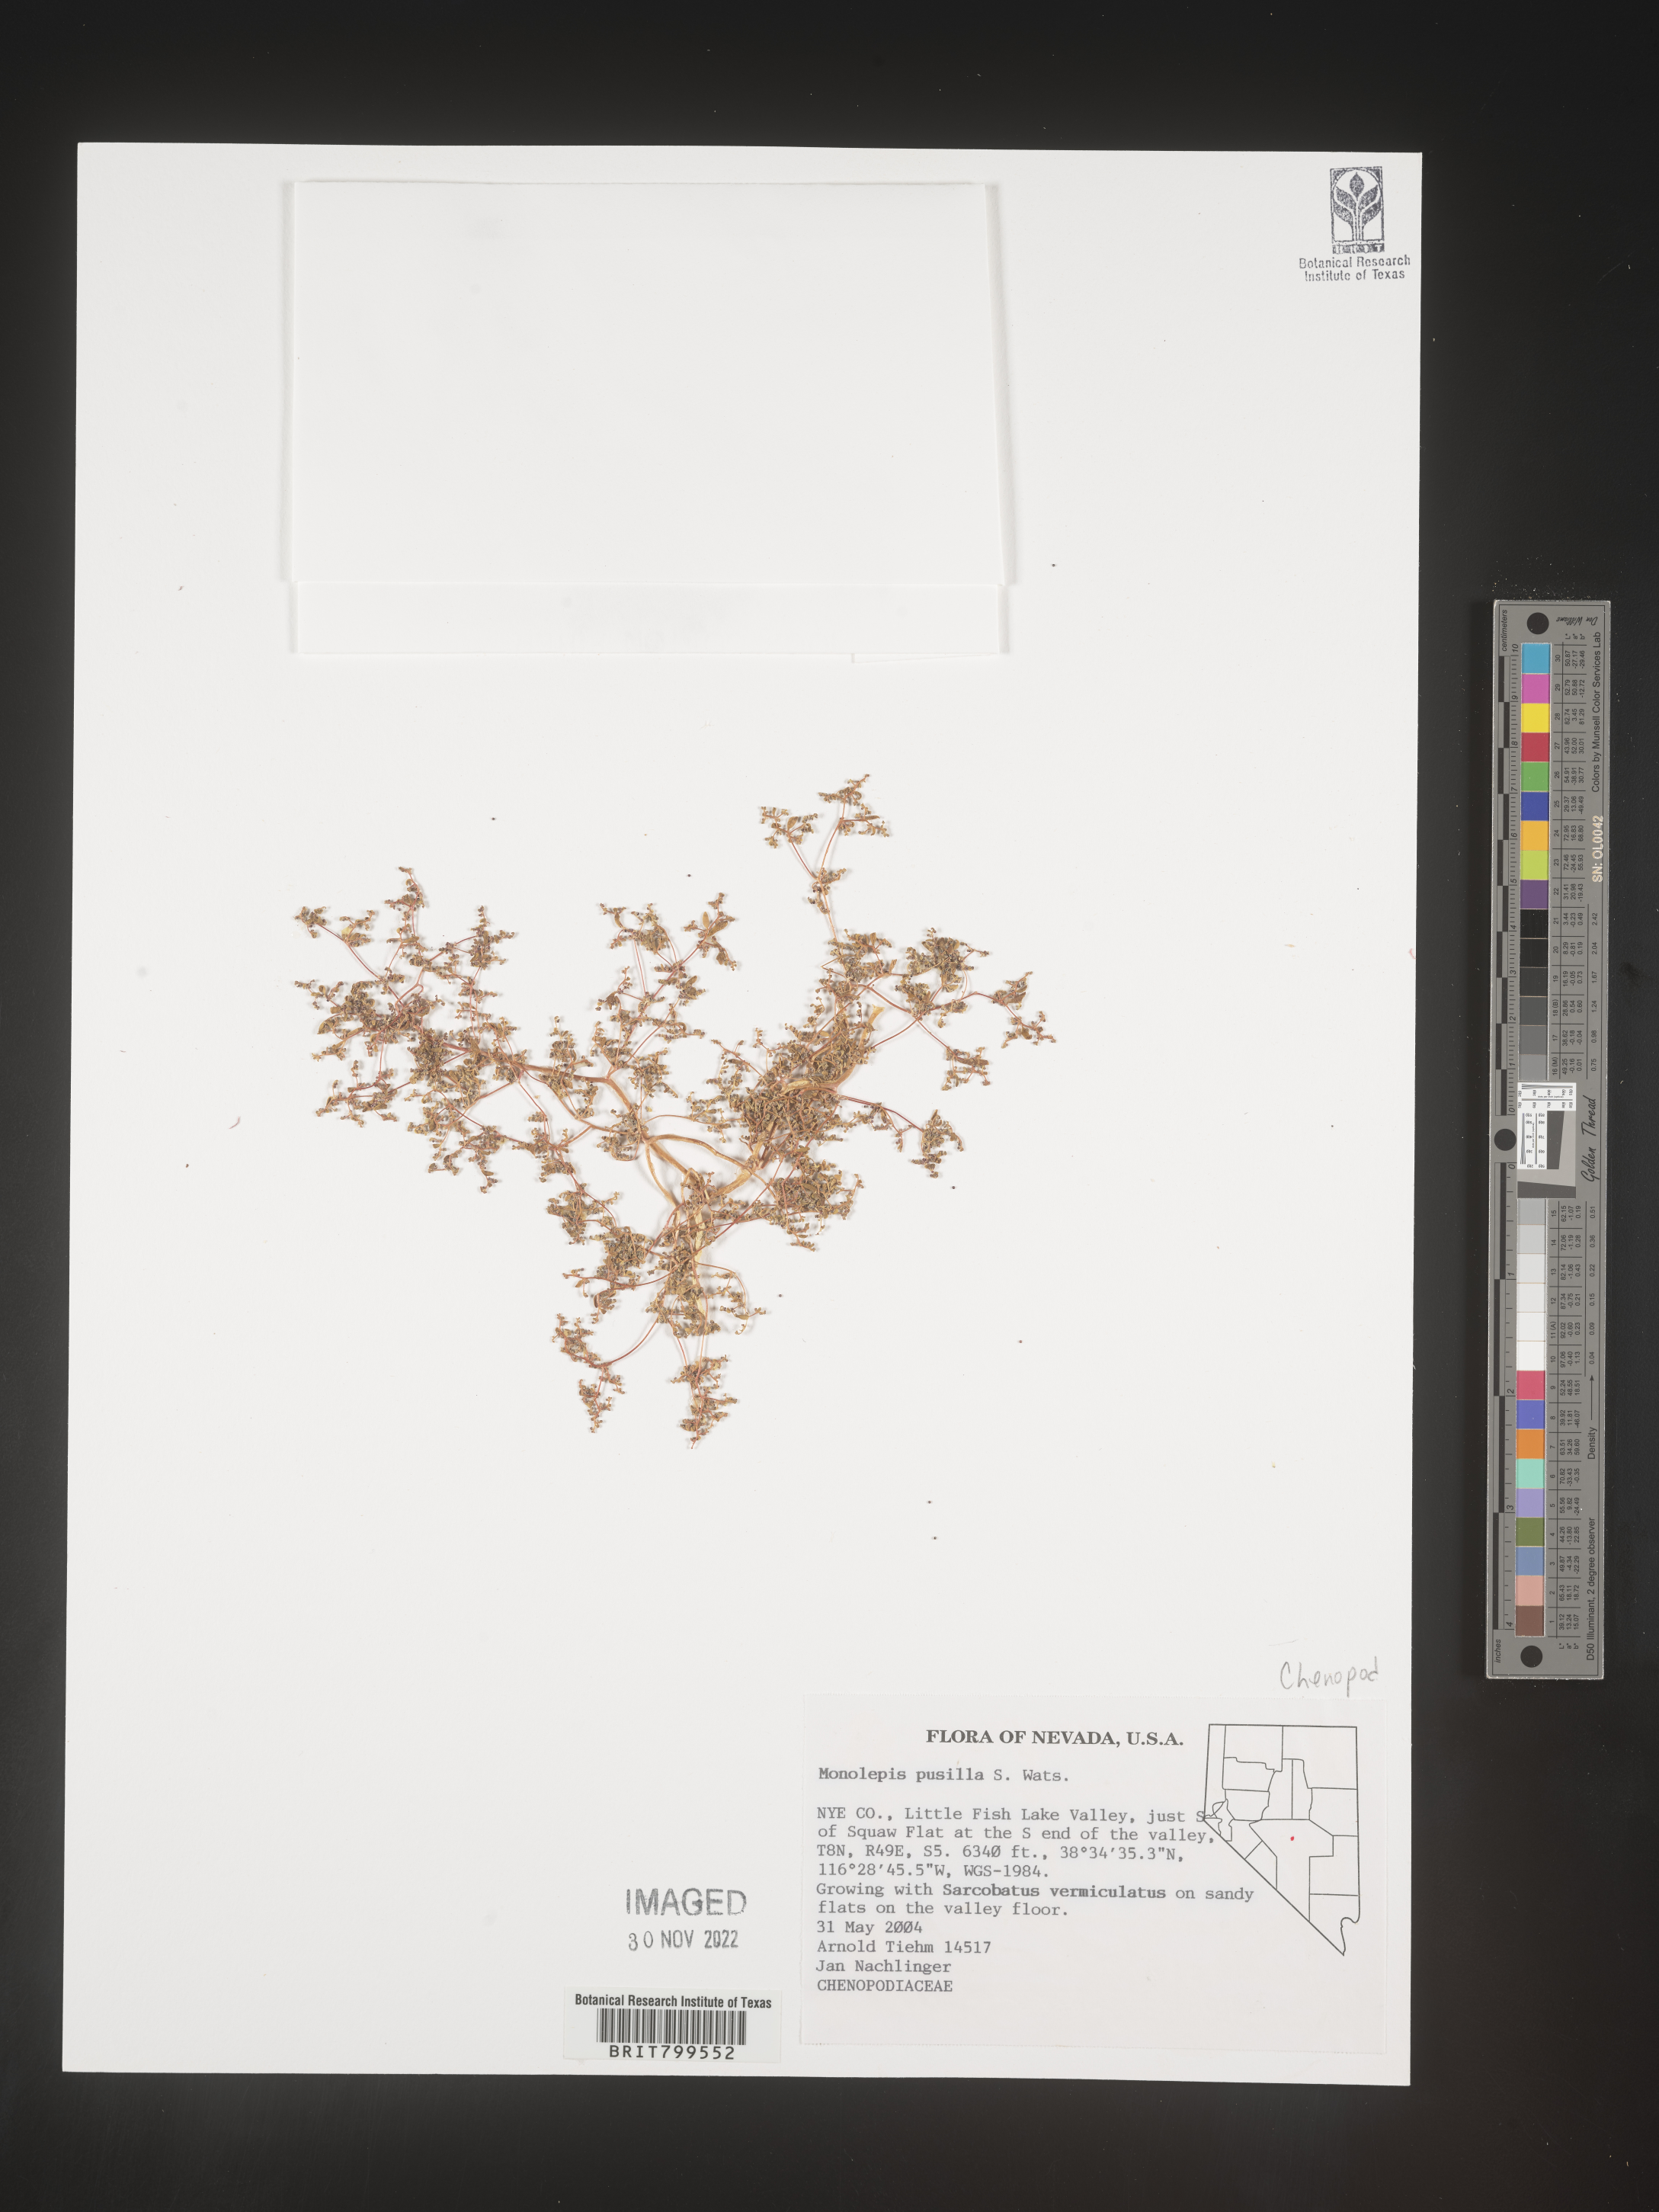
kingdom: Plantae
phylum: Tracheophyta
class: Magnoliopsida
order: Caryophyllales
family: Amaranthaceae
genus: Blitum
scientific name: Blitum
